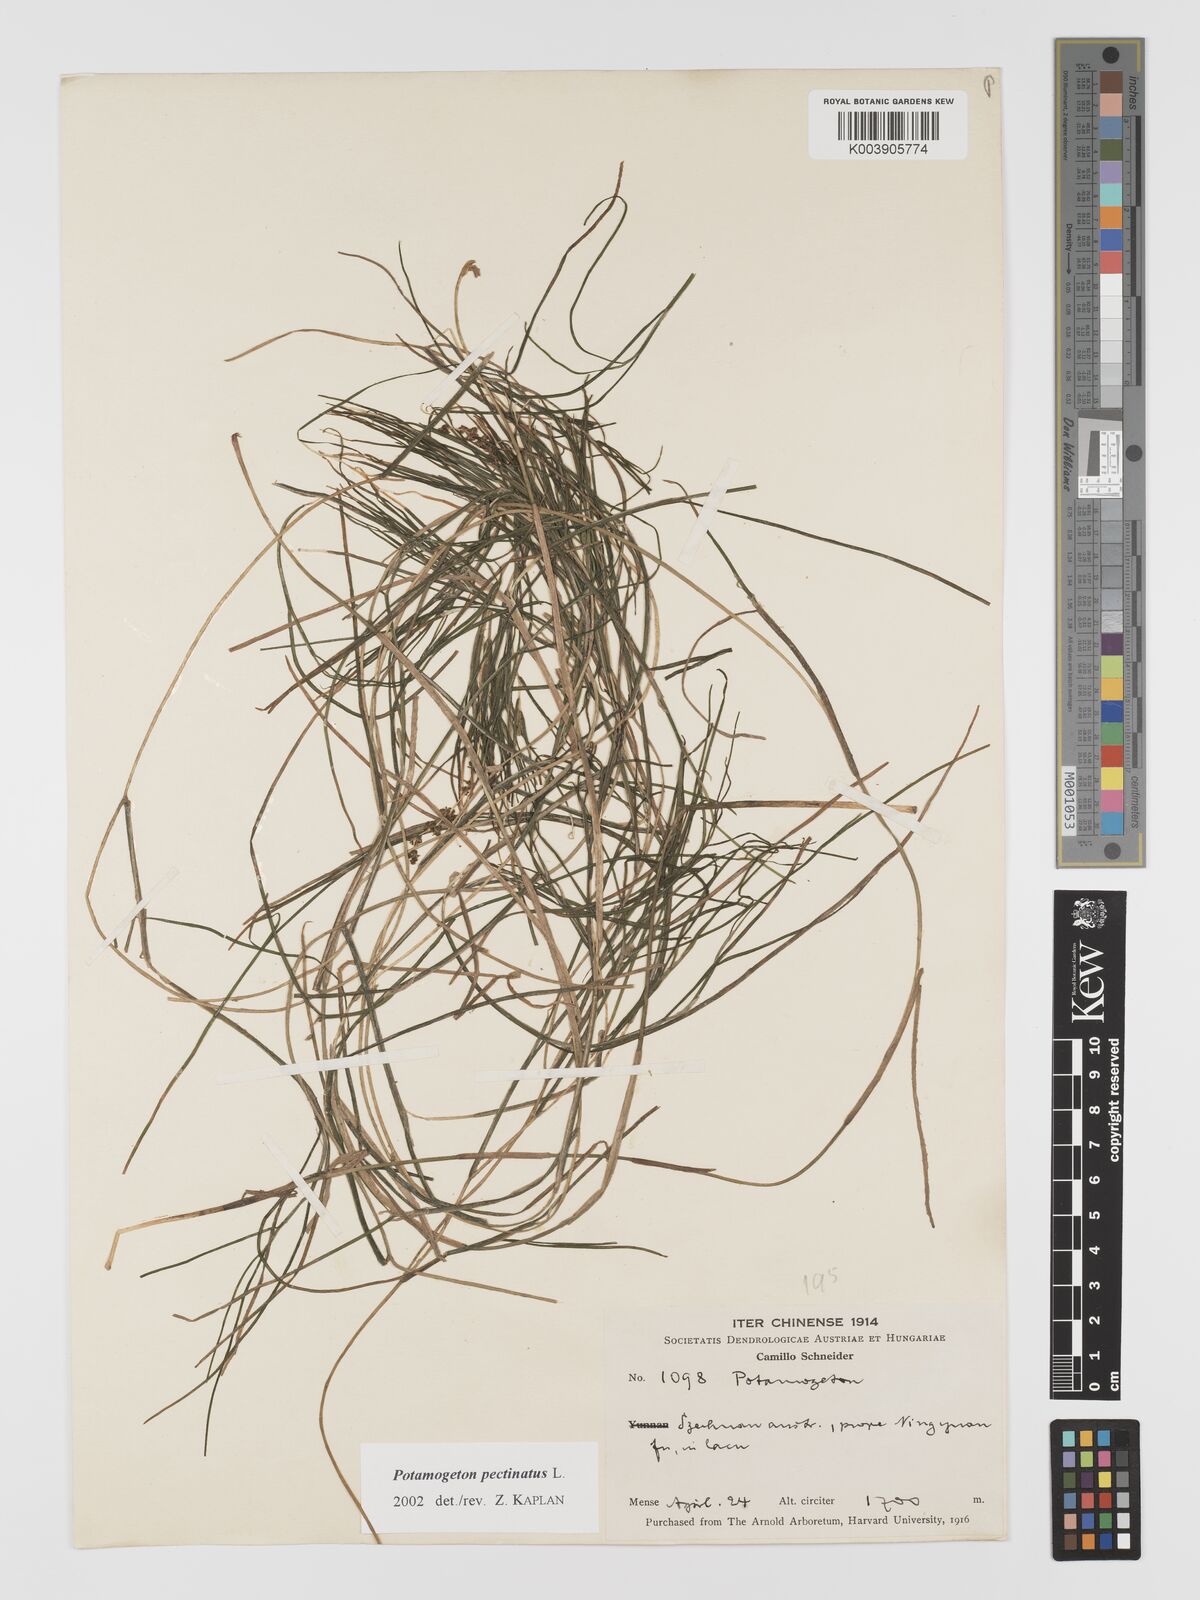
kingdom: Plantae
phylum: Tracheophyta
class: Liliopsida
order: Alismatales
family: Potamogetonaceae
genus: Stuckenia
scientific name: Stuckenia pectinata
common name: Sago pondweed
